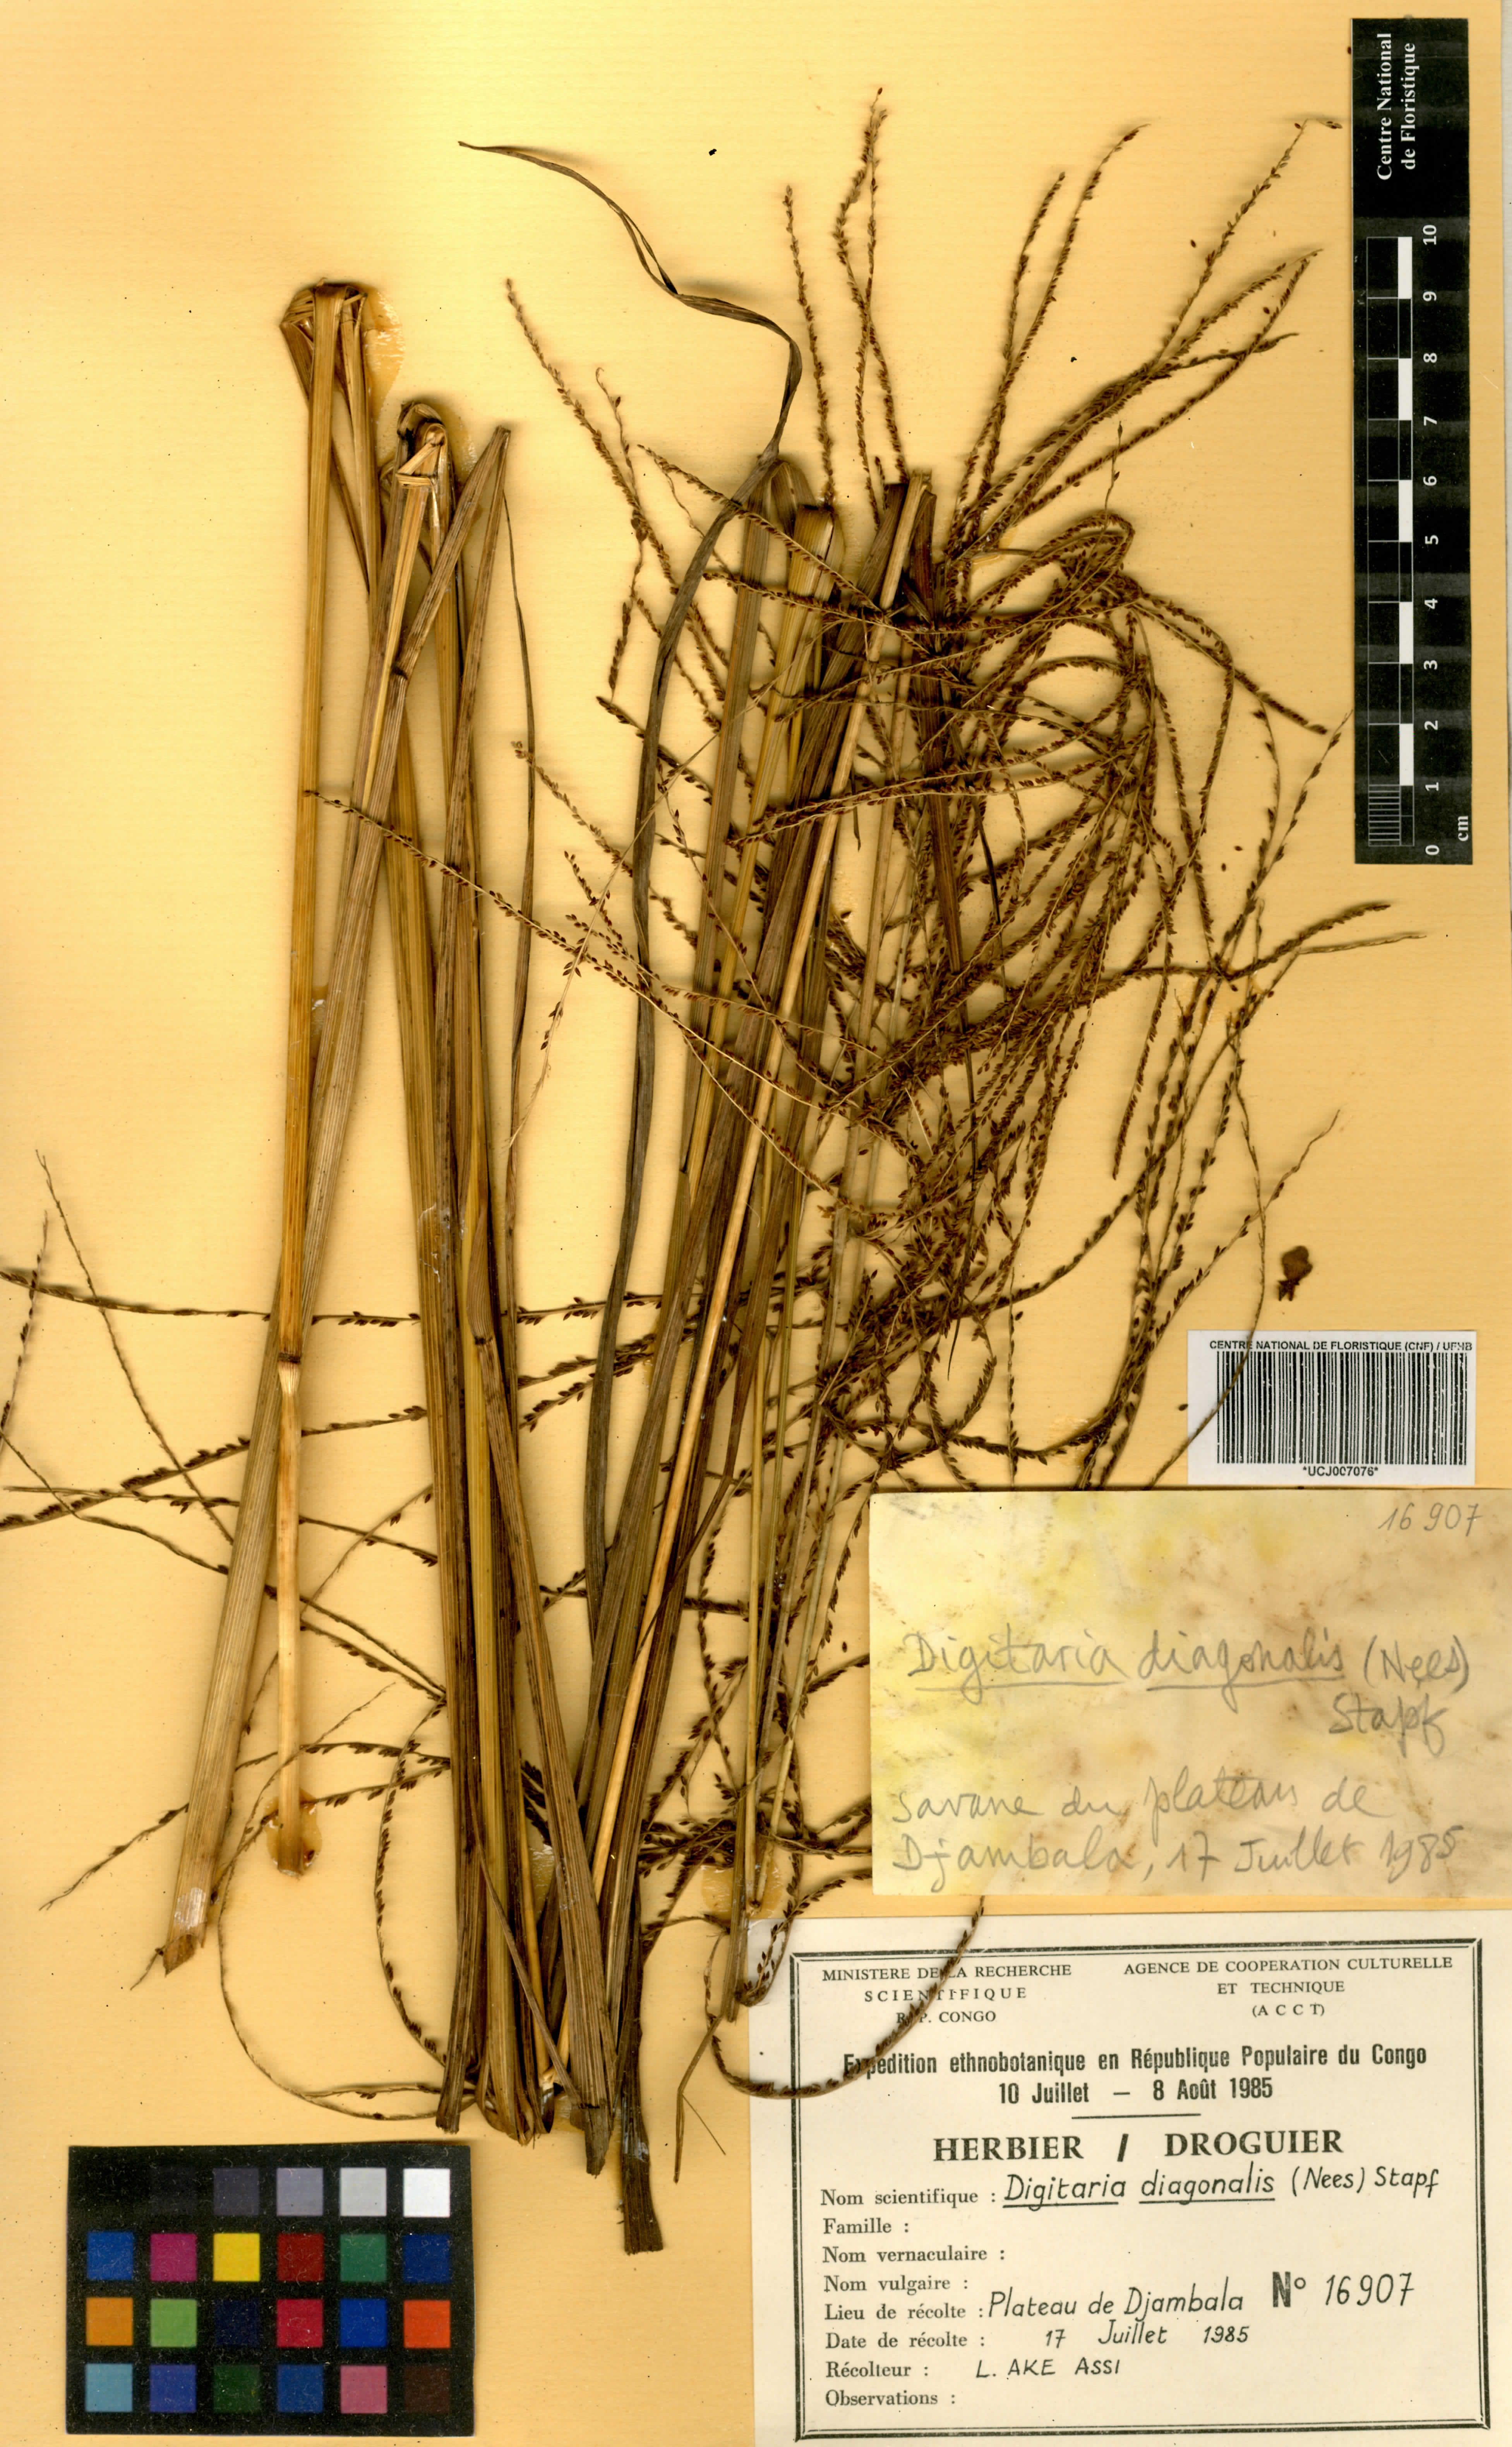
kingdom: Plantae
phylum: Tracheophyta
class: Liliopsida
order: Poales
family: Poaceae
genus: Digitaria
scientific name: Digitaria diagonalis
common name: Brown-seed finger grass
